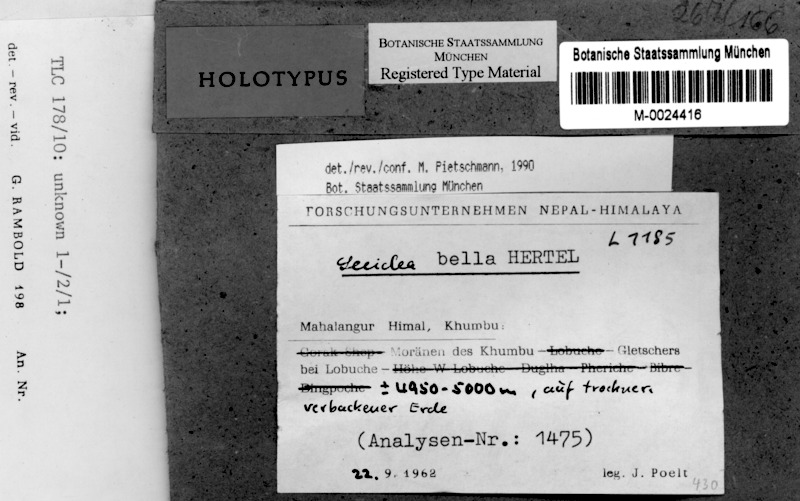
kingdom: Fungi
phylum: Ascomycota
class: Lecanoromycetes
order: Lecideales
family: Lecideaceae
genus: Lecidea
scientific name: Lecidea
